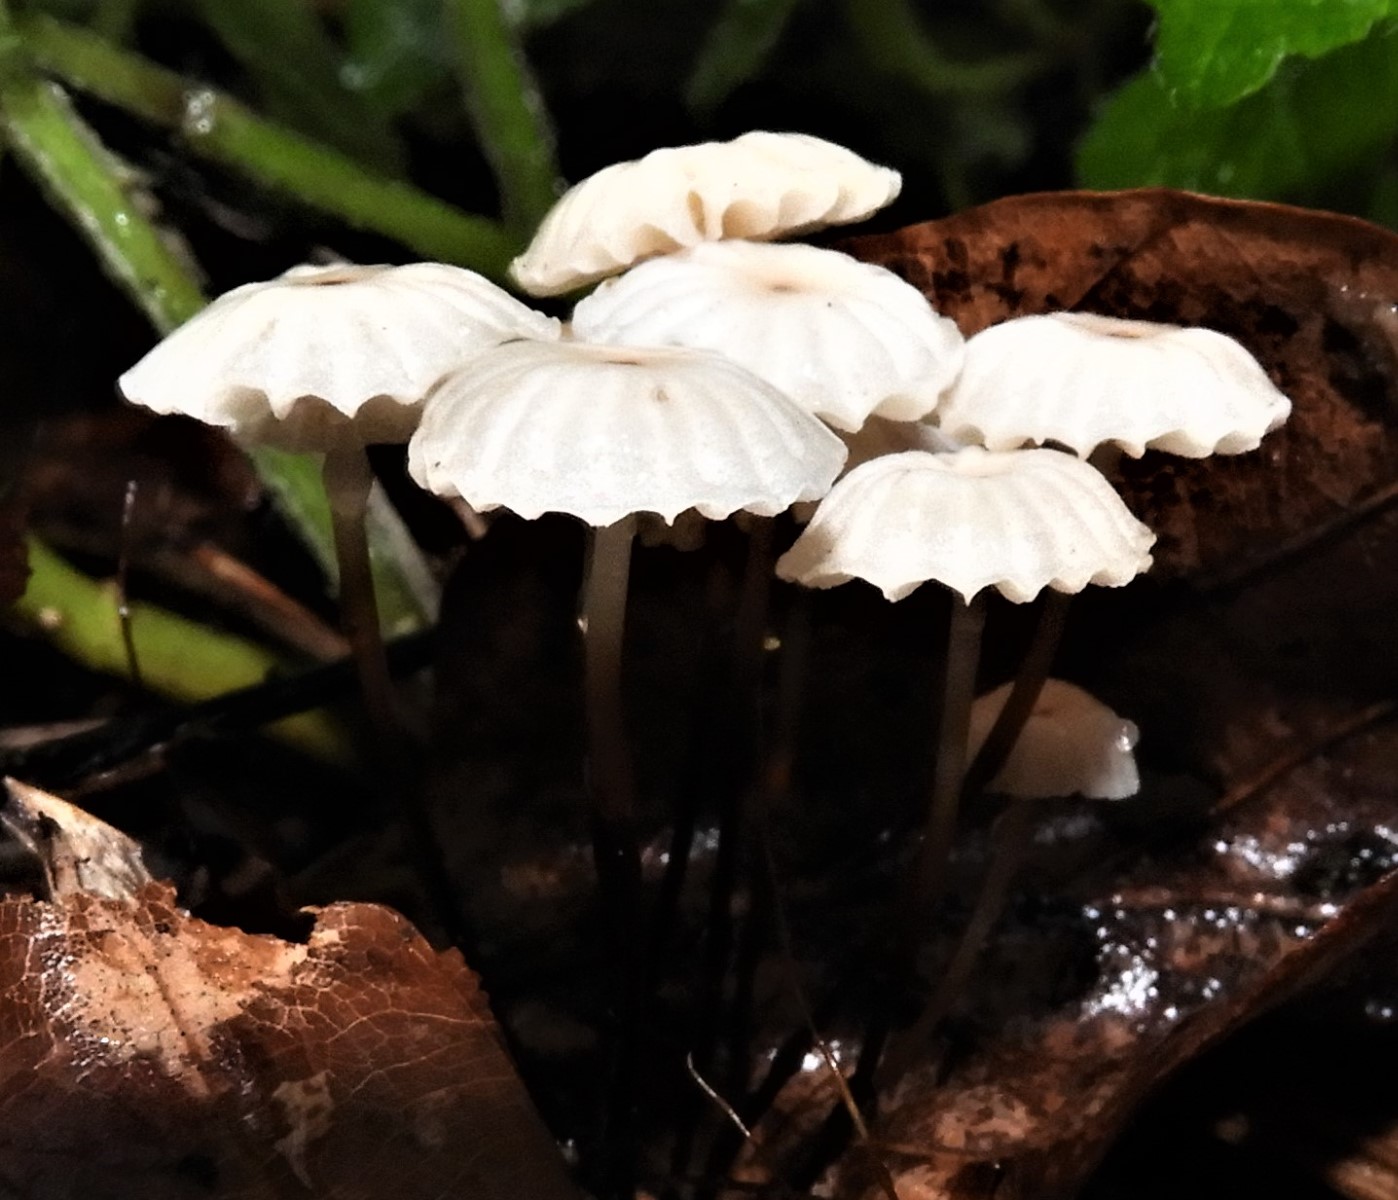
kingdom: Fungi
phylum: Basidiomycota
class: Agaricomycetes
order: Agaricales
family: Marasmiaceae
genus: Marasmius
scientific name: Marasmius rotula
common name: hjul-bruskhat
